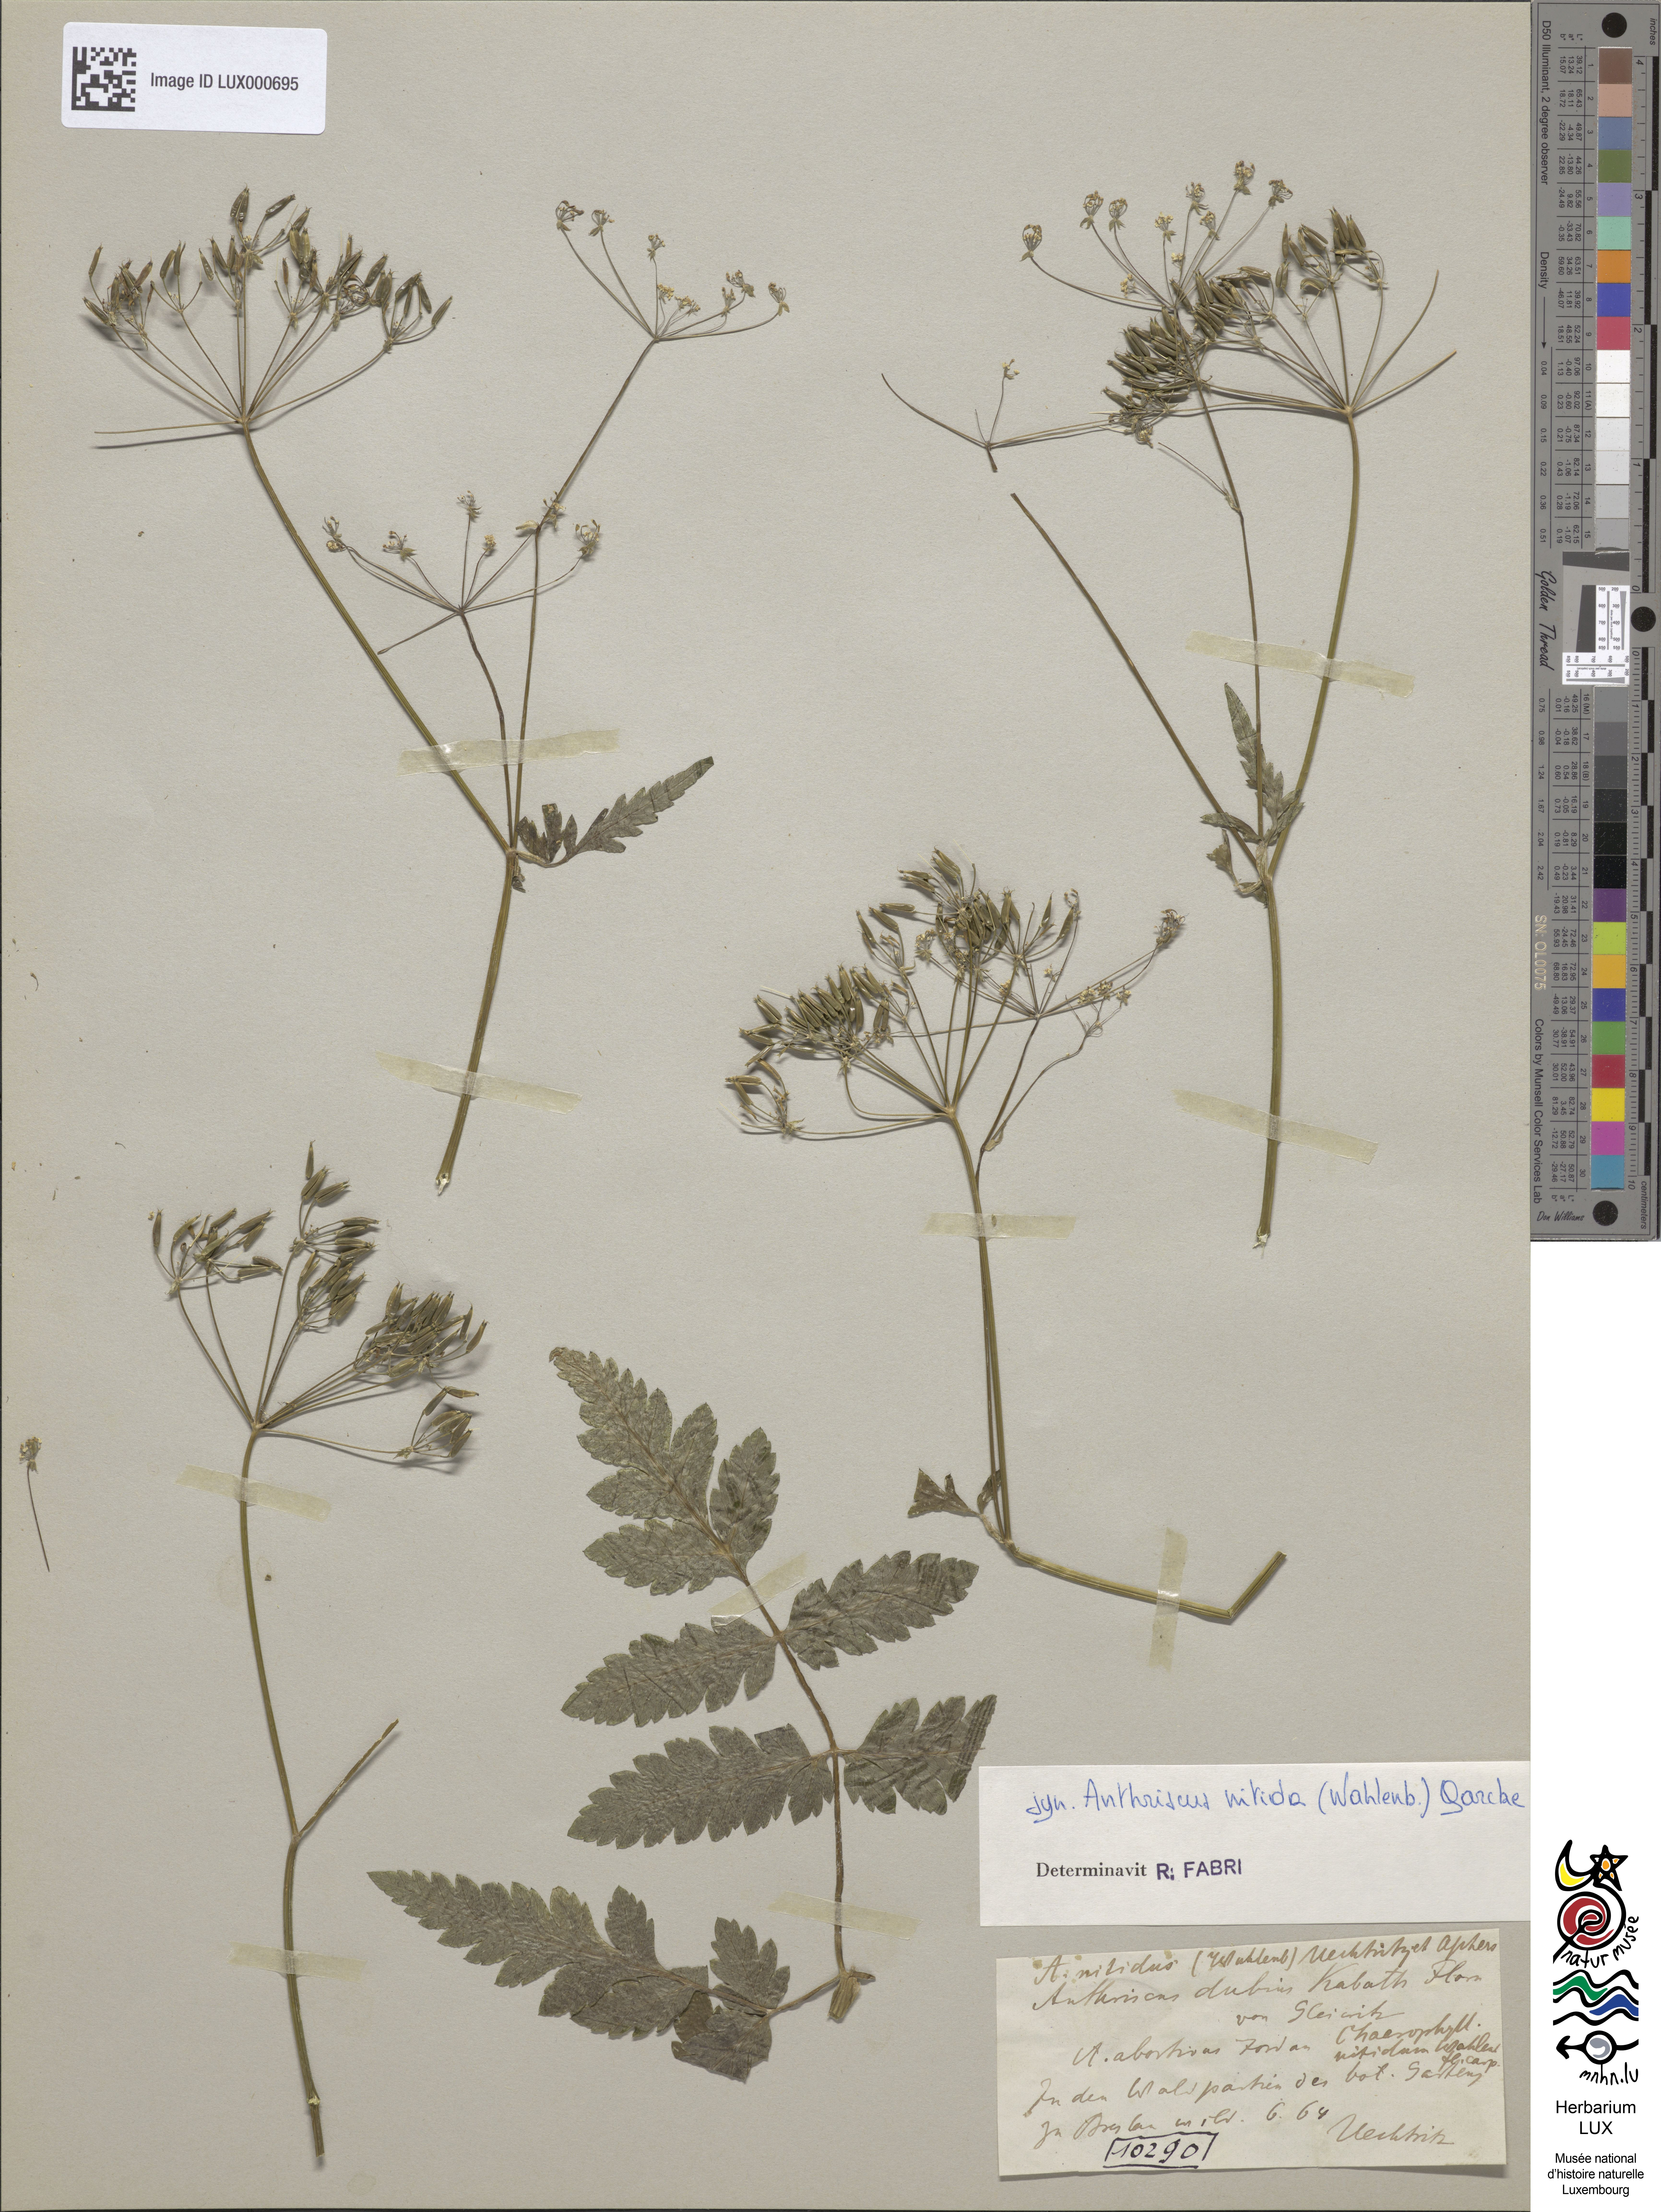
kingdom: Plantae
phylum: Tracheophyta
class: Magnoliopsida
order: Apiales
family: Apiaceae
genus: Anthriscus
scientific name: Anthriscus sylvestris
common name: Cow parsley
